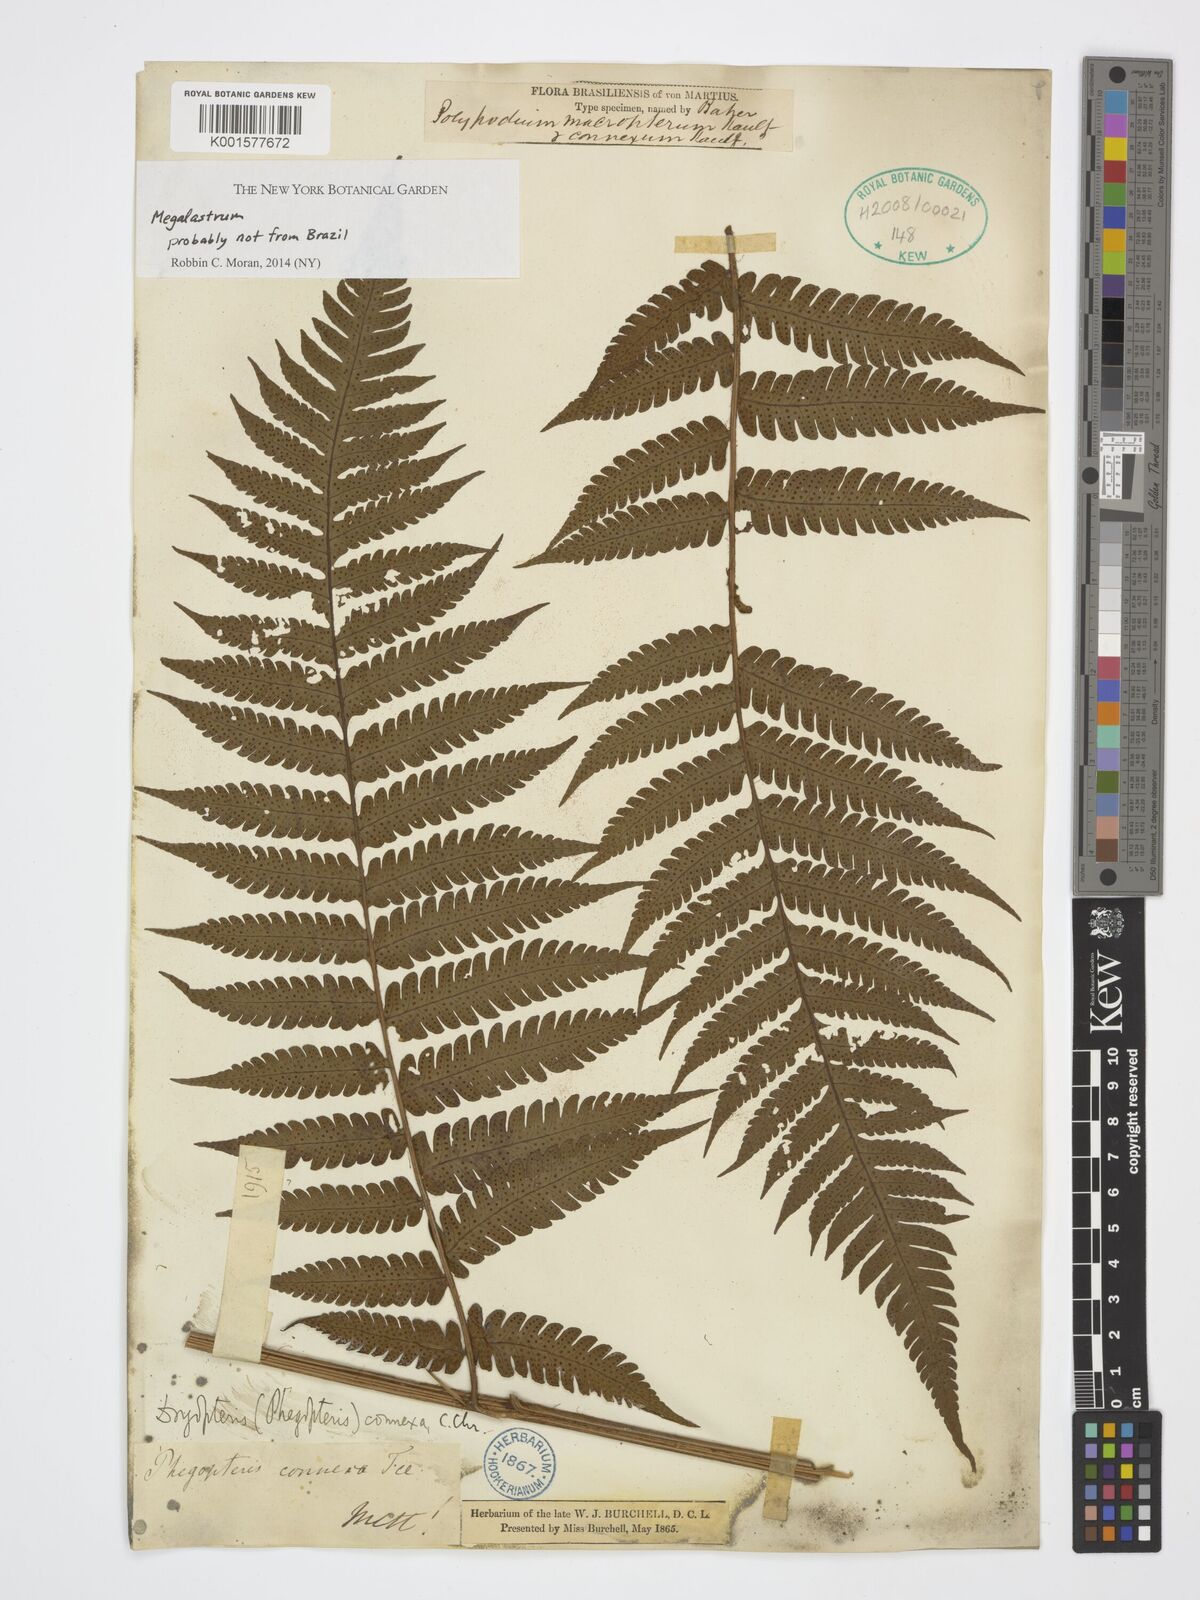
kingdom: Plantae
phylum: Tracheophyta
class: Polypodiopsida
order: Polypodiales
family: Dryopteridaceae
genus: Megalastrum
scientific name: Megalastrum
